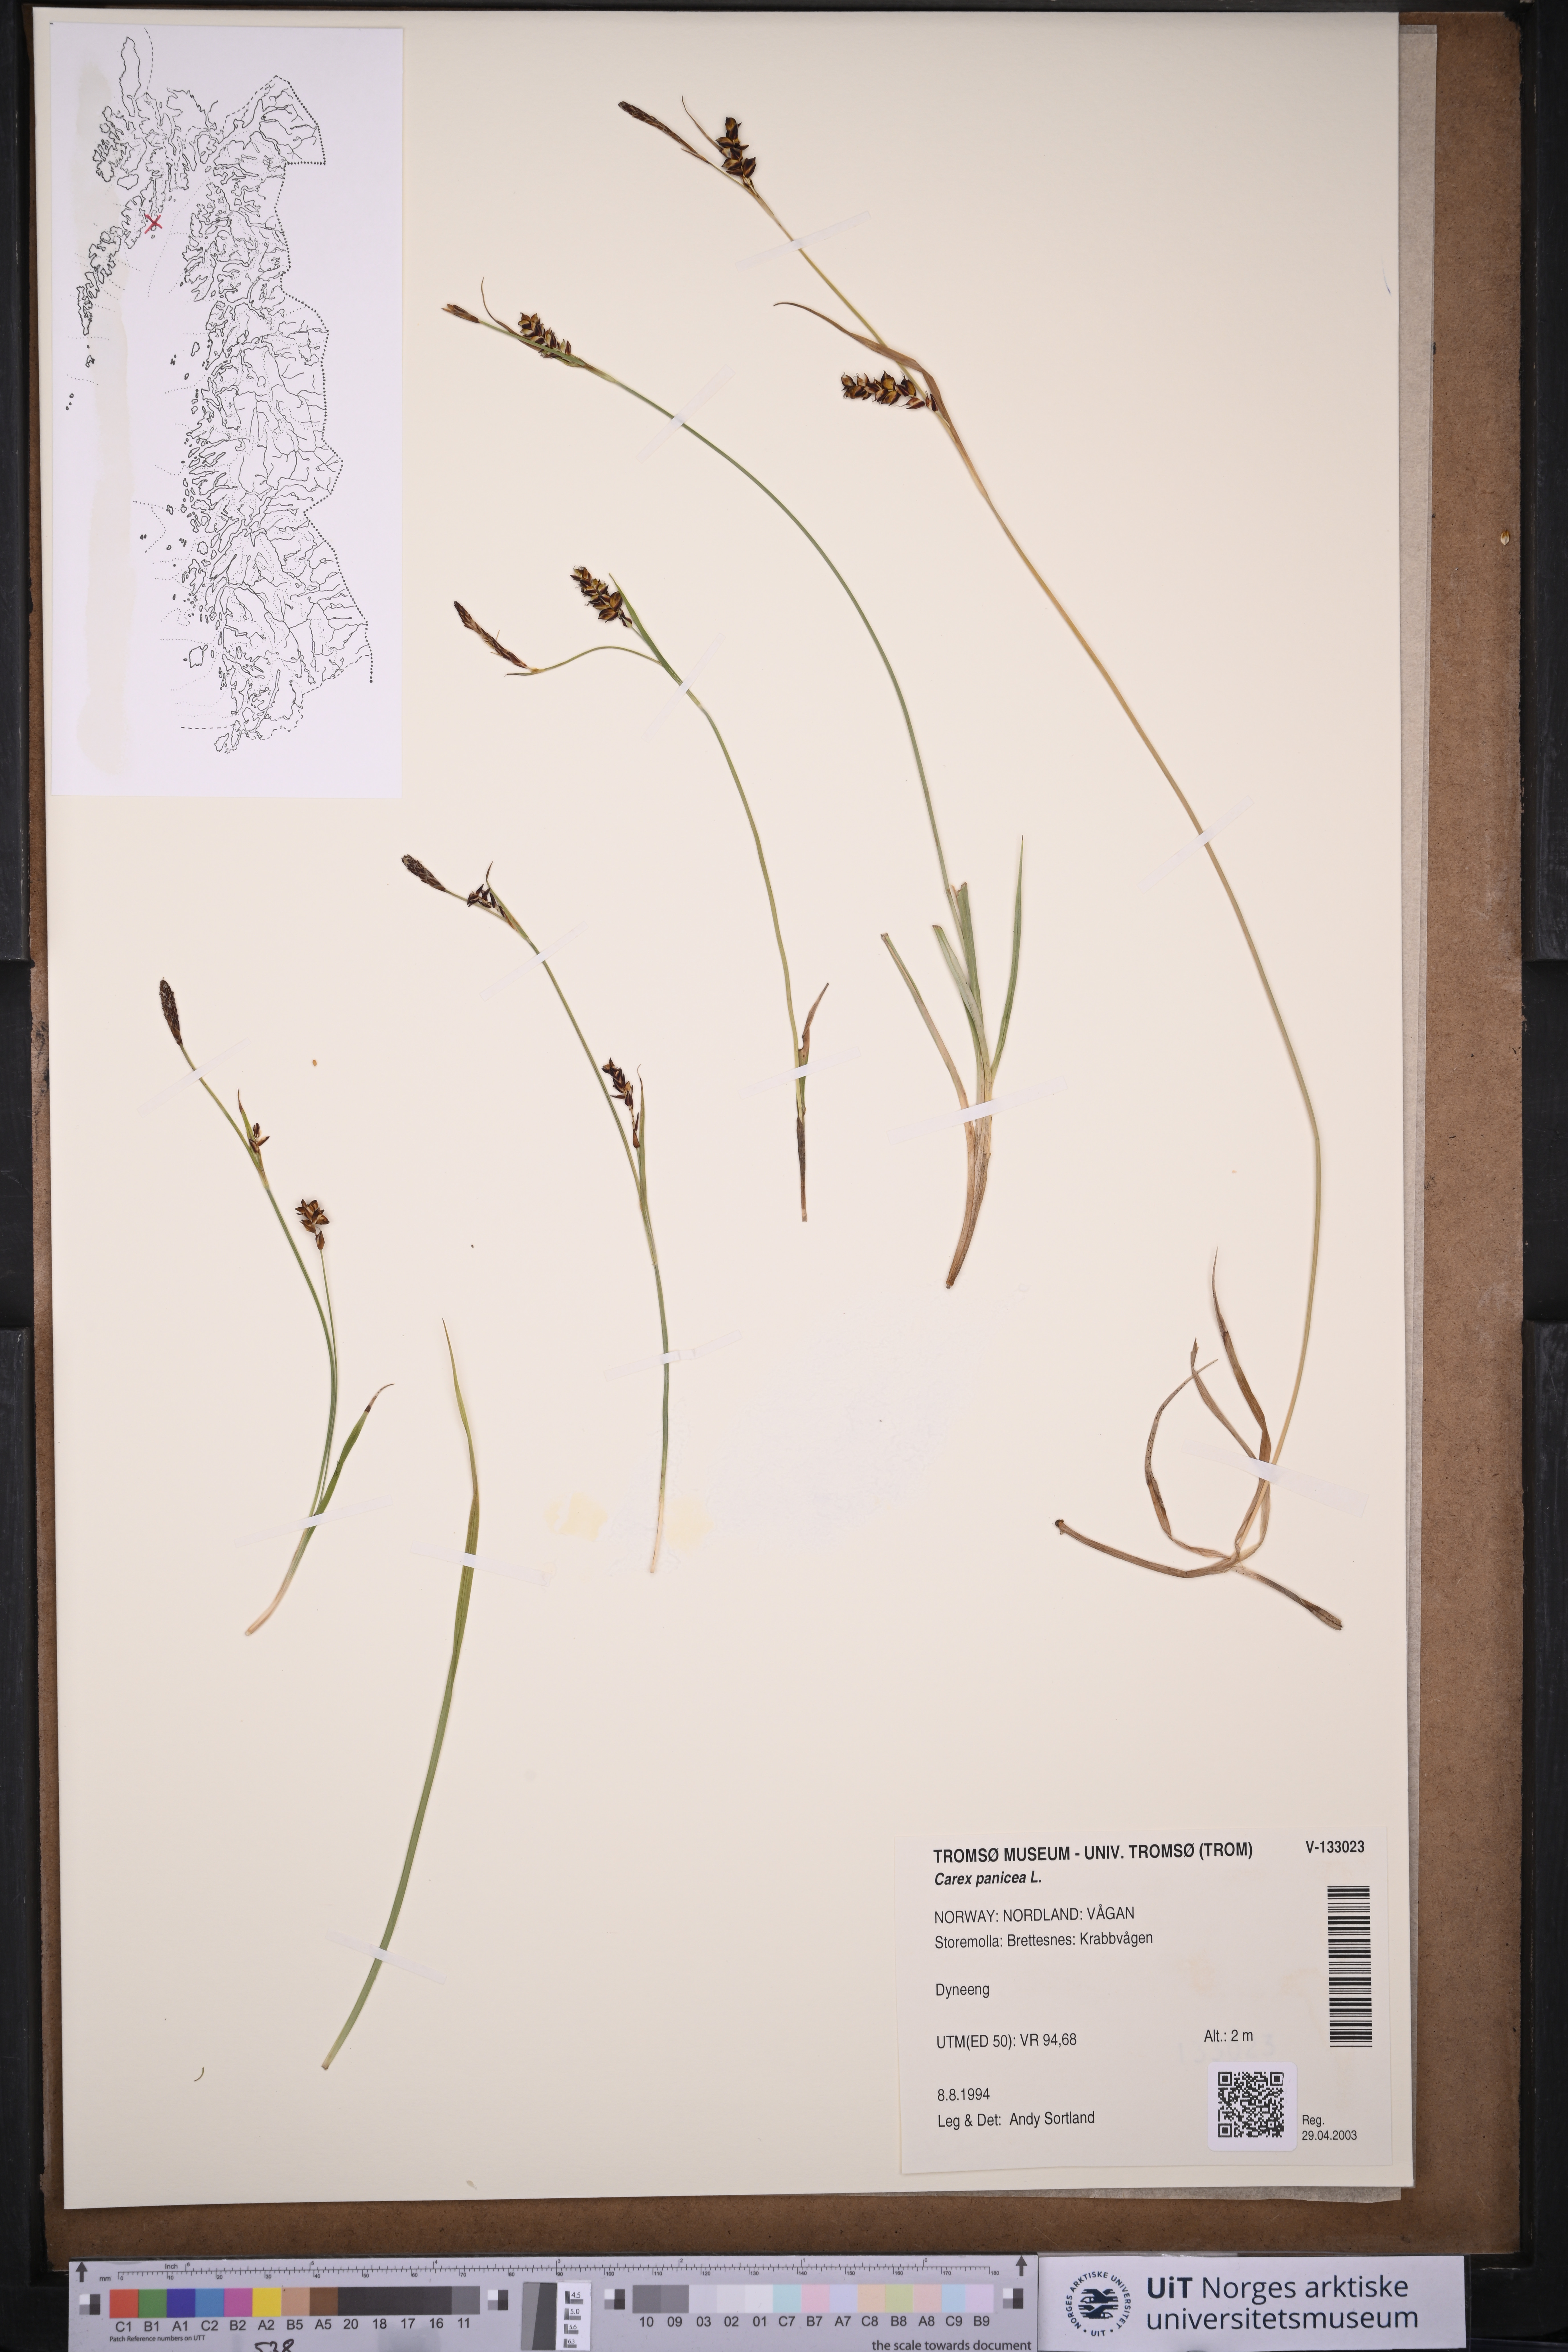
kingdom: Plantae
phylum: Tracheophyta
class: Liliopsida
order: Poales
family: Cyperaceae
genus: Carex
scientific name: Carex panicea
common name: Carnation sedge
